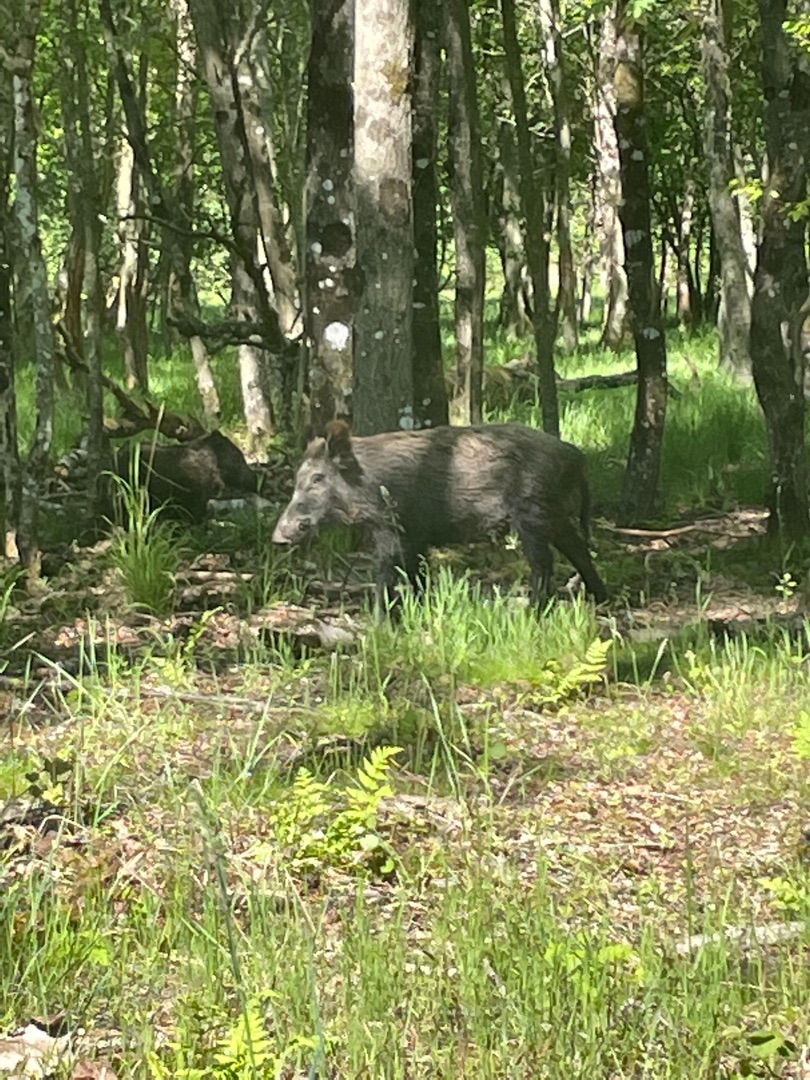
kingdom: Animalia
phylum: Chordata
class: Mammalia
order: Artiodactyla
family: Suidae
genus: Sus
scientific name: Sus scrofa
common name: Vildsvin
